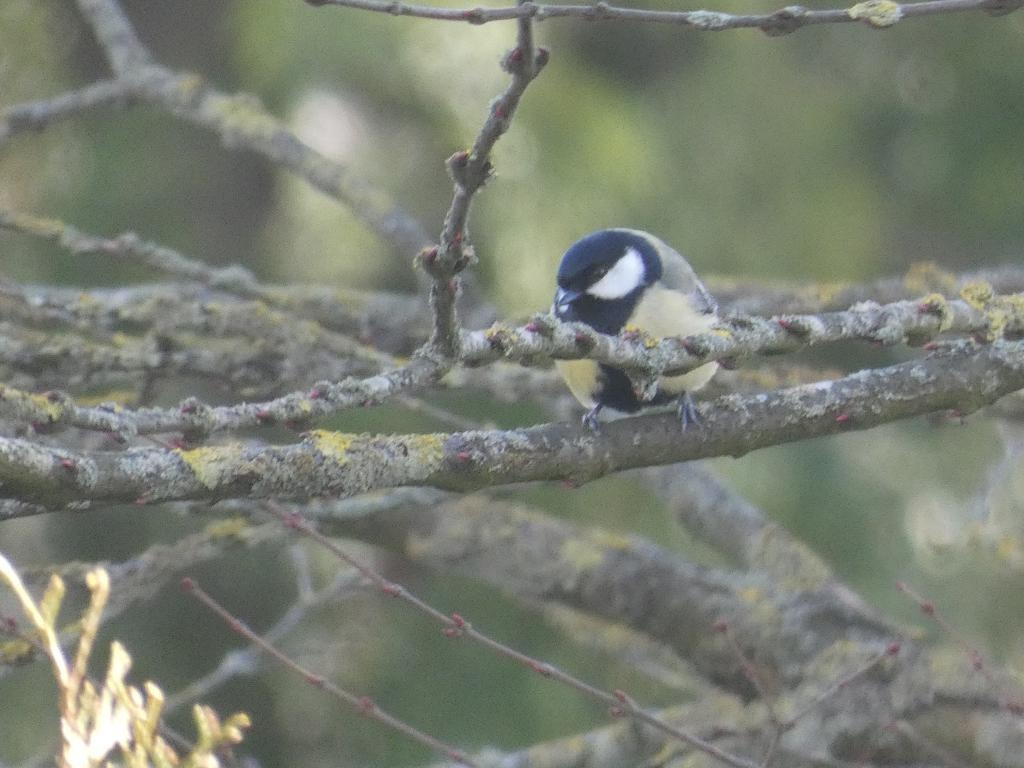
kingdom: Animalia
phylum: Chordata
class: Aves
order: Passeriformes
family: Paridae
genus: Parus
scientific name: Parus major
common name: Musvit
